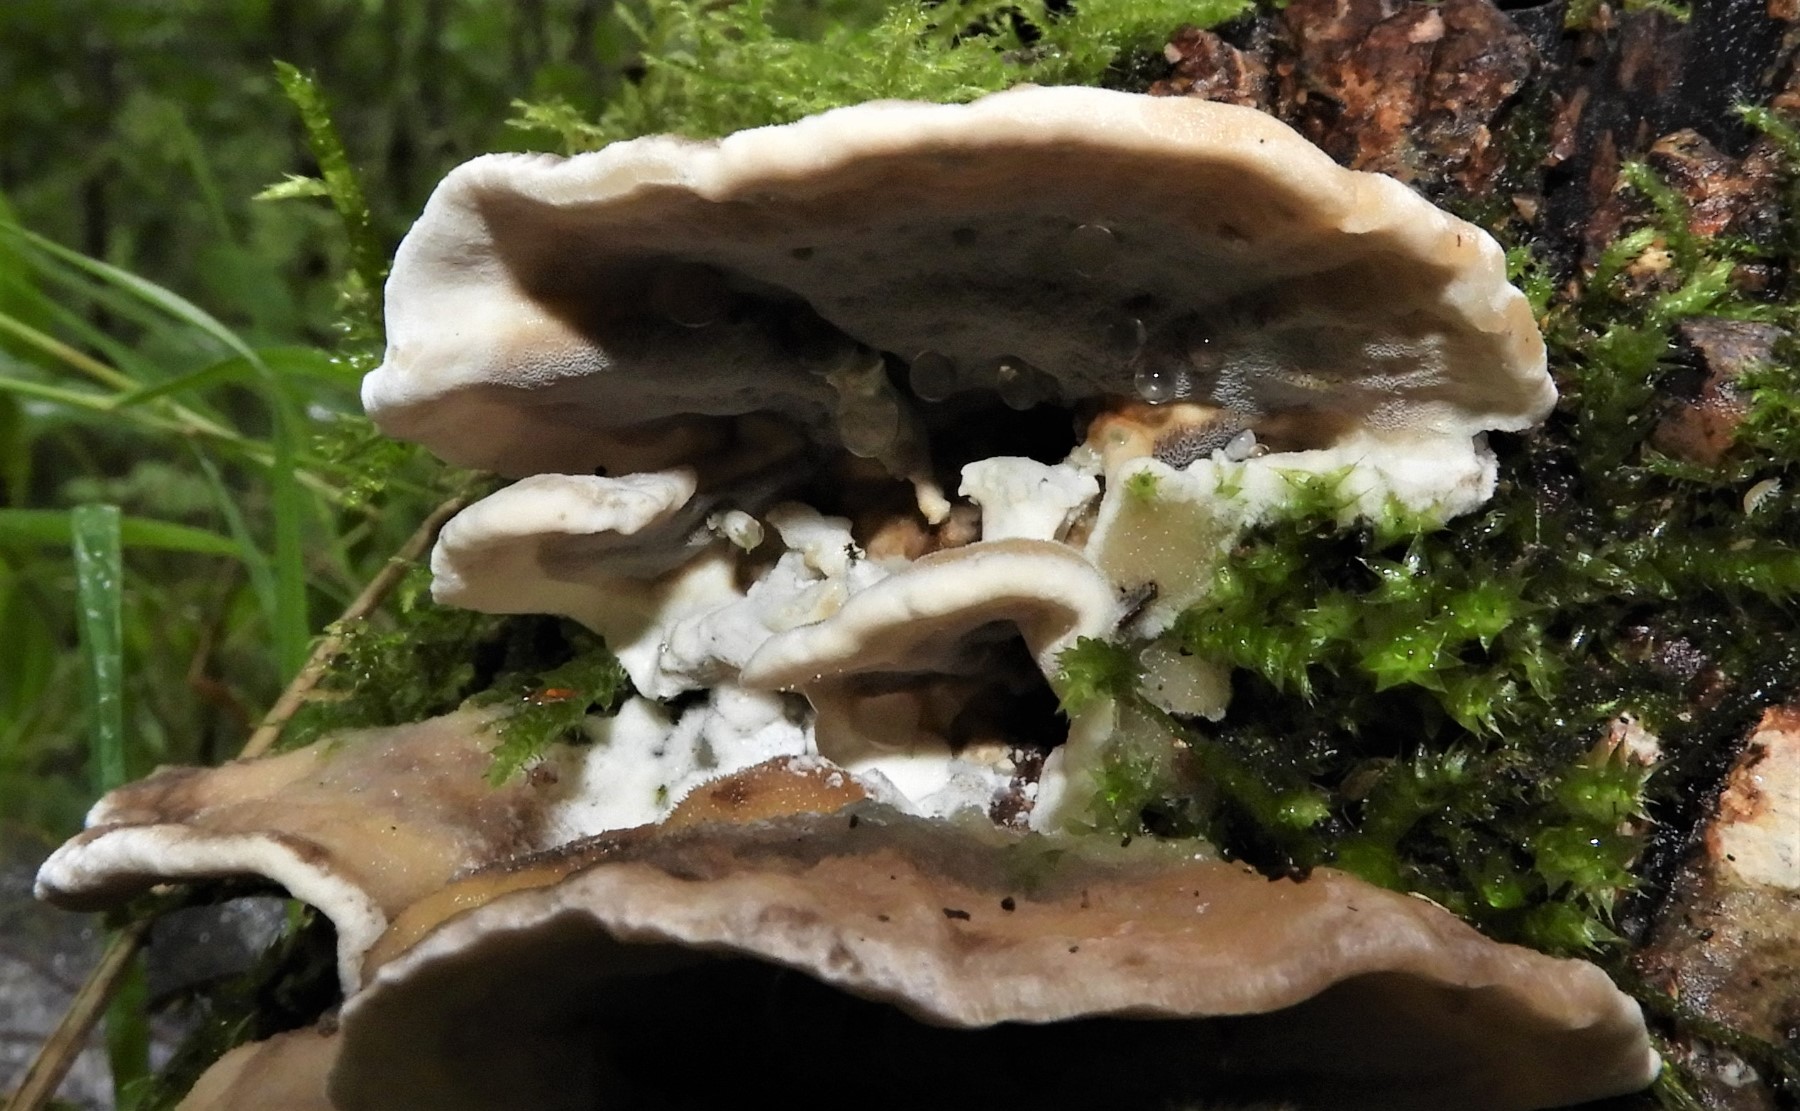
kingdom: Fungi
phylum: Basidiomycota
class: Agaricomycetes
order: Polyporales
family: Phanerochaetaceae
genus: Bjerkandera
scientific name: Bjerkandera adusta
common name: sveden sodporesvamp
